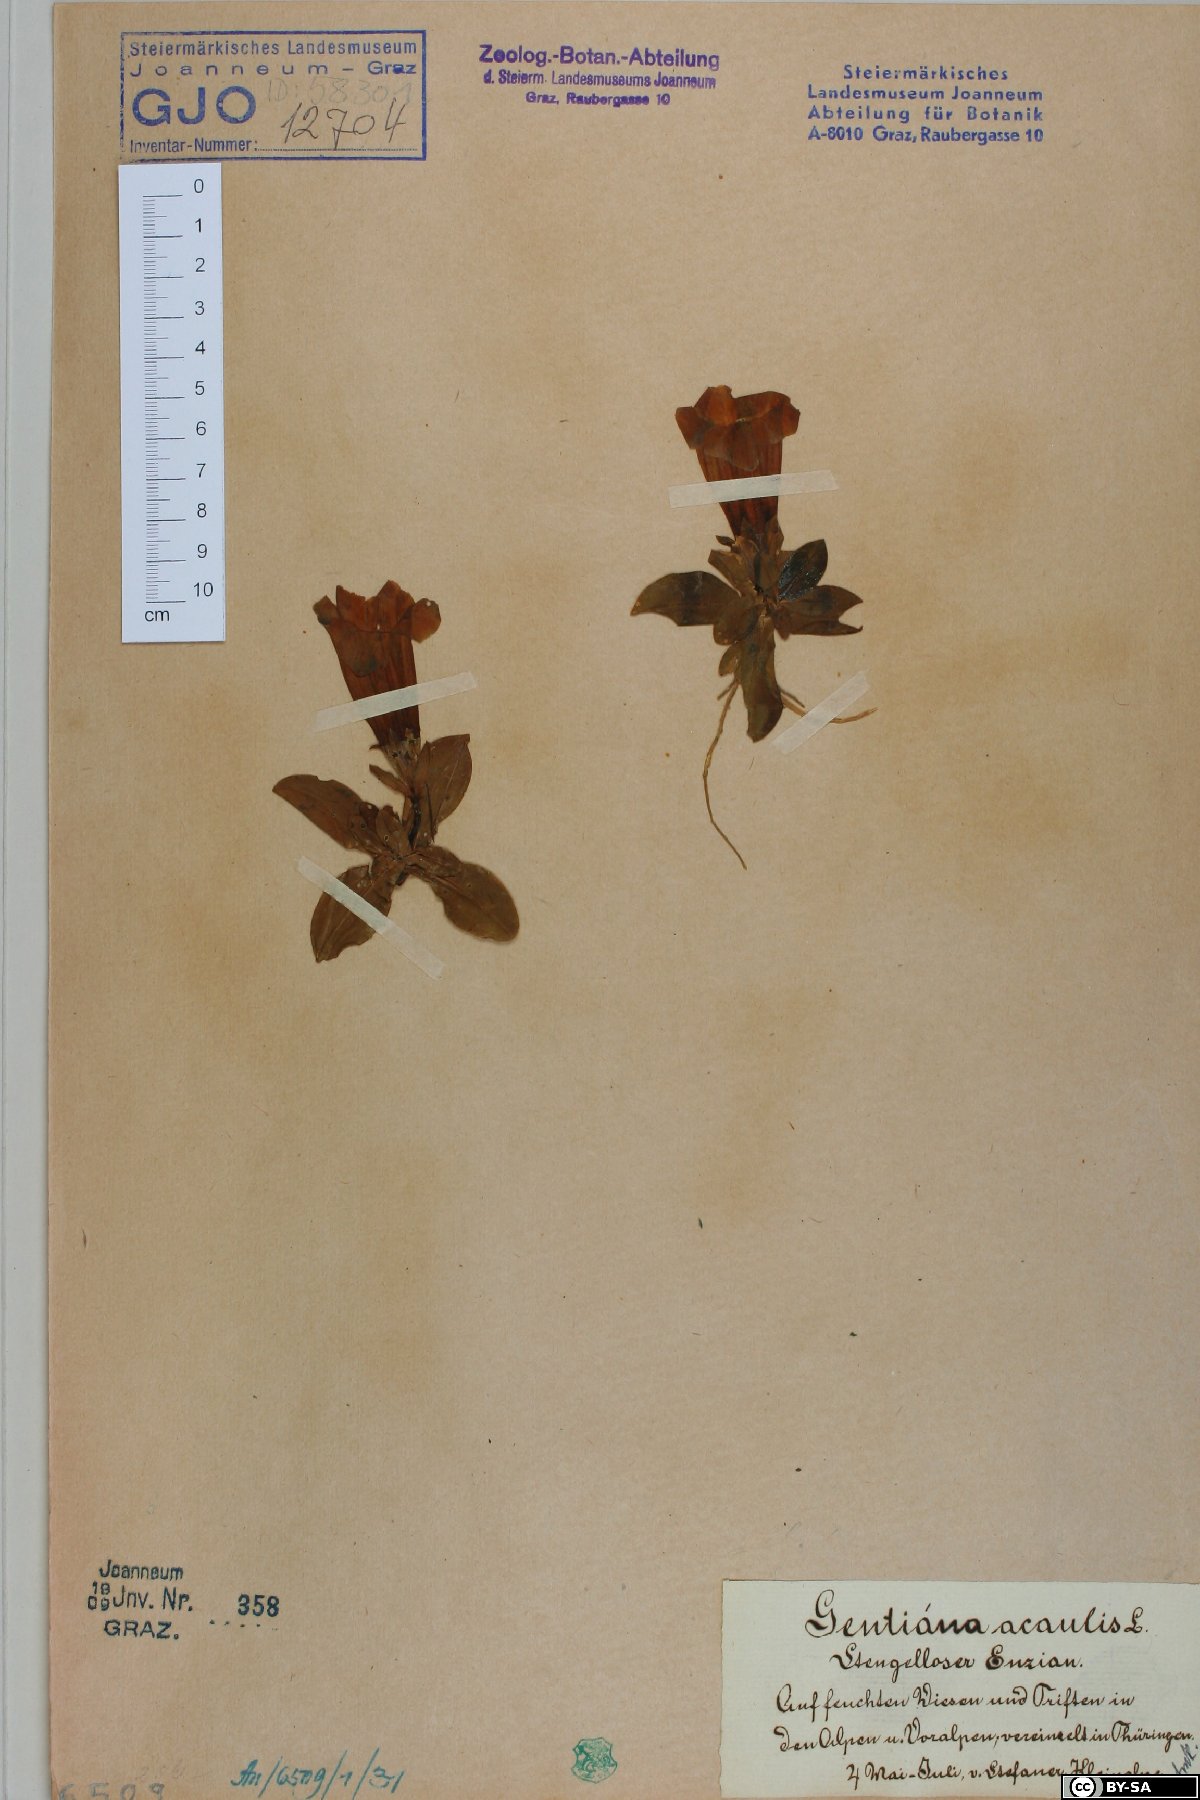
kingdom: Plantae
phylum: Tracheophyta
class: Magnoliopsida
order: Gentianales
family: Gentianaceae
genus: Gentiana
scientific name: Gentiana acaulis
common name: Trumpet gentian
